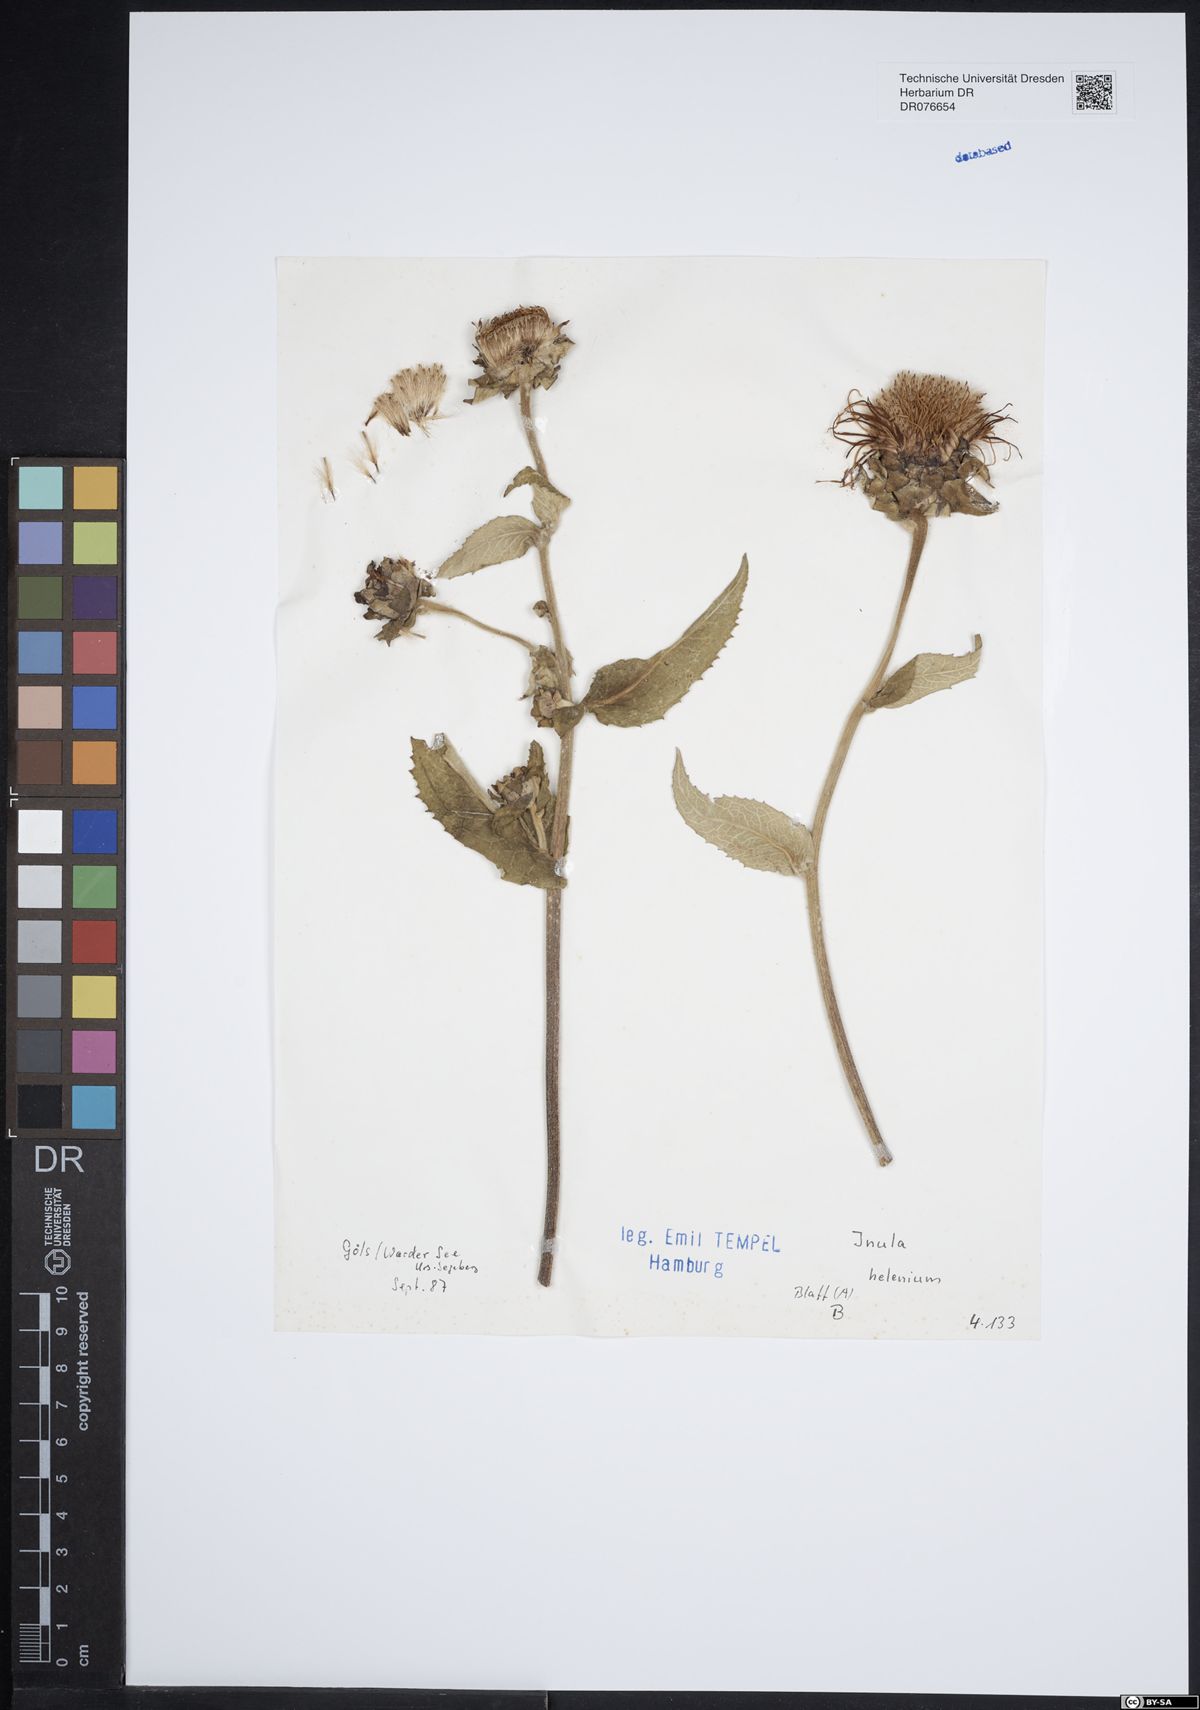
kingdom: Plantae
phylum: Tracheophyta
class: Magnoliopsida
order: Asterales
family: Asteraceae
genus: Inula
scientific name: Inula helenium
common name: Elecampane
